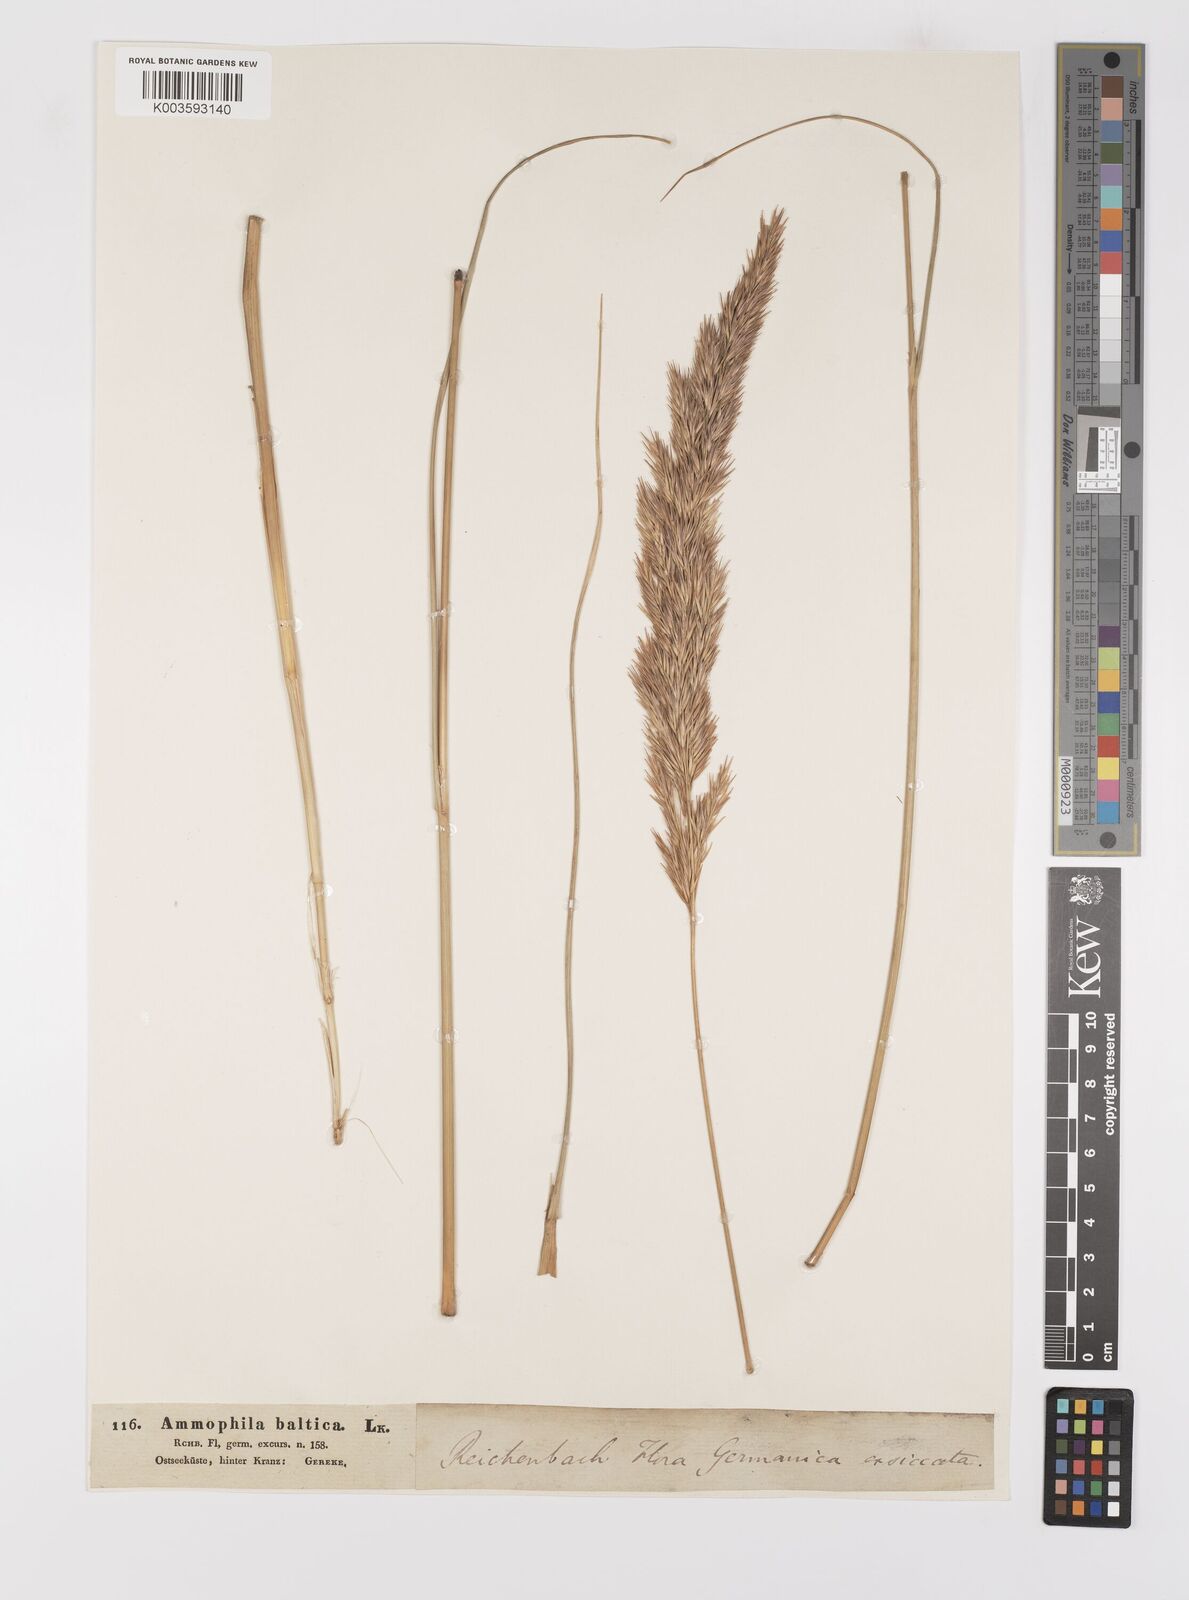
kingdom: Plantae
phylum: Tracheophyta
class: Liliopsida
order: Poales
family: Poaceae
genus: Calamagrostis
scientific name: Calamagrostis baltica
